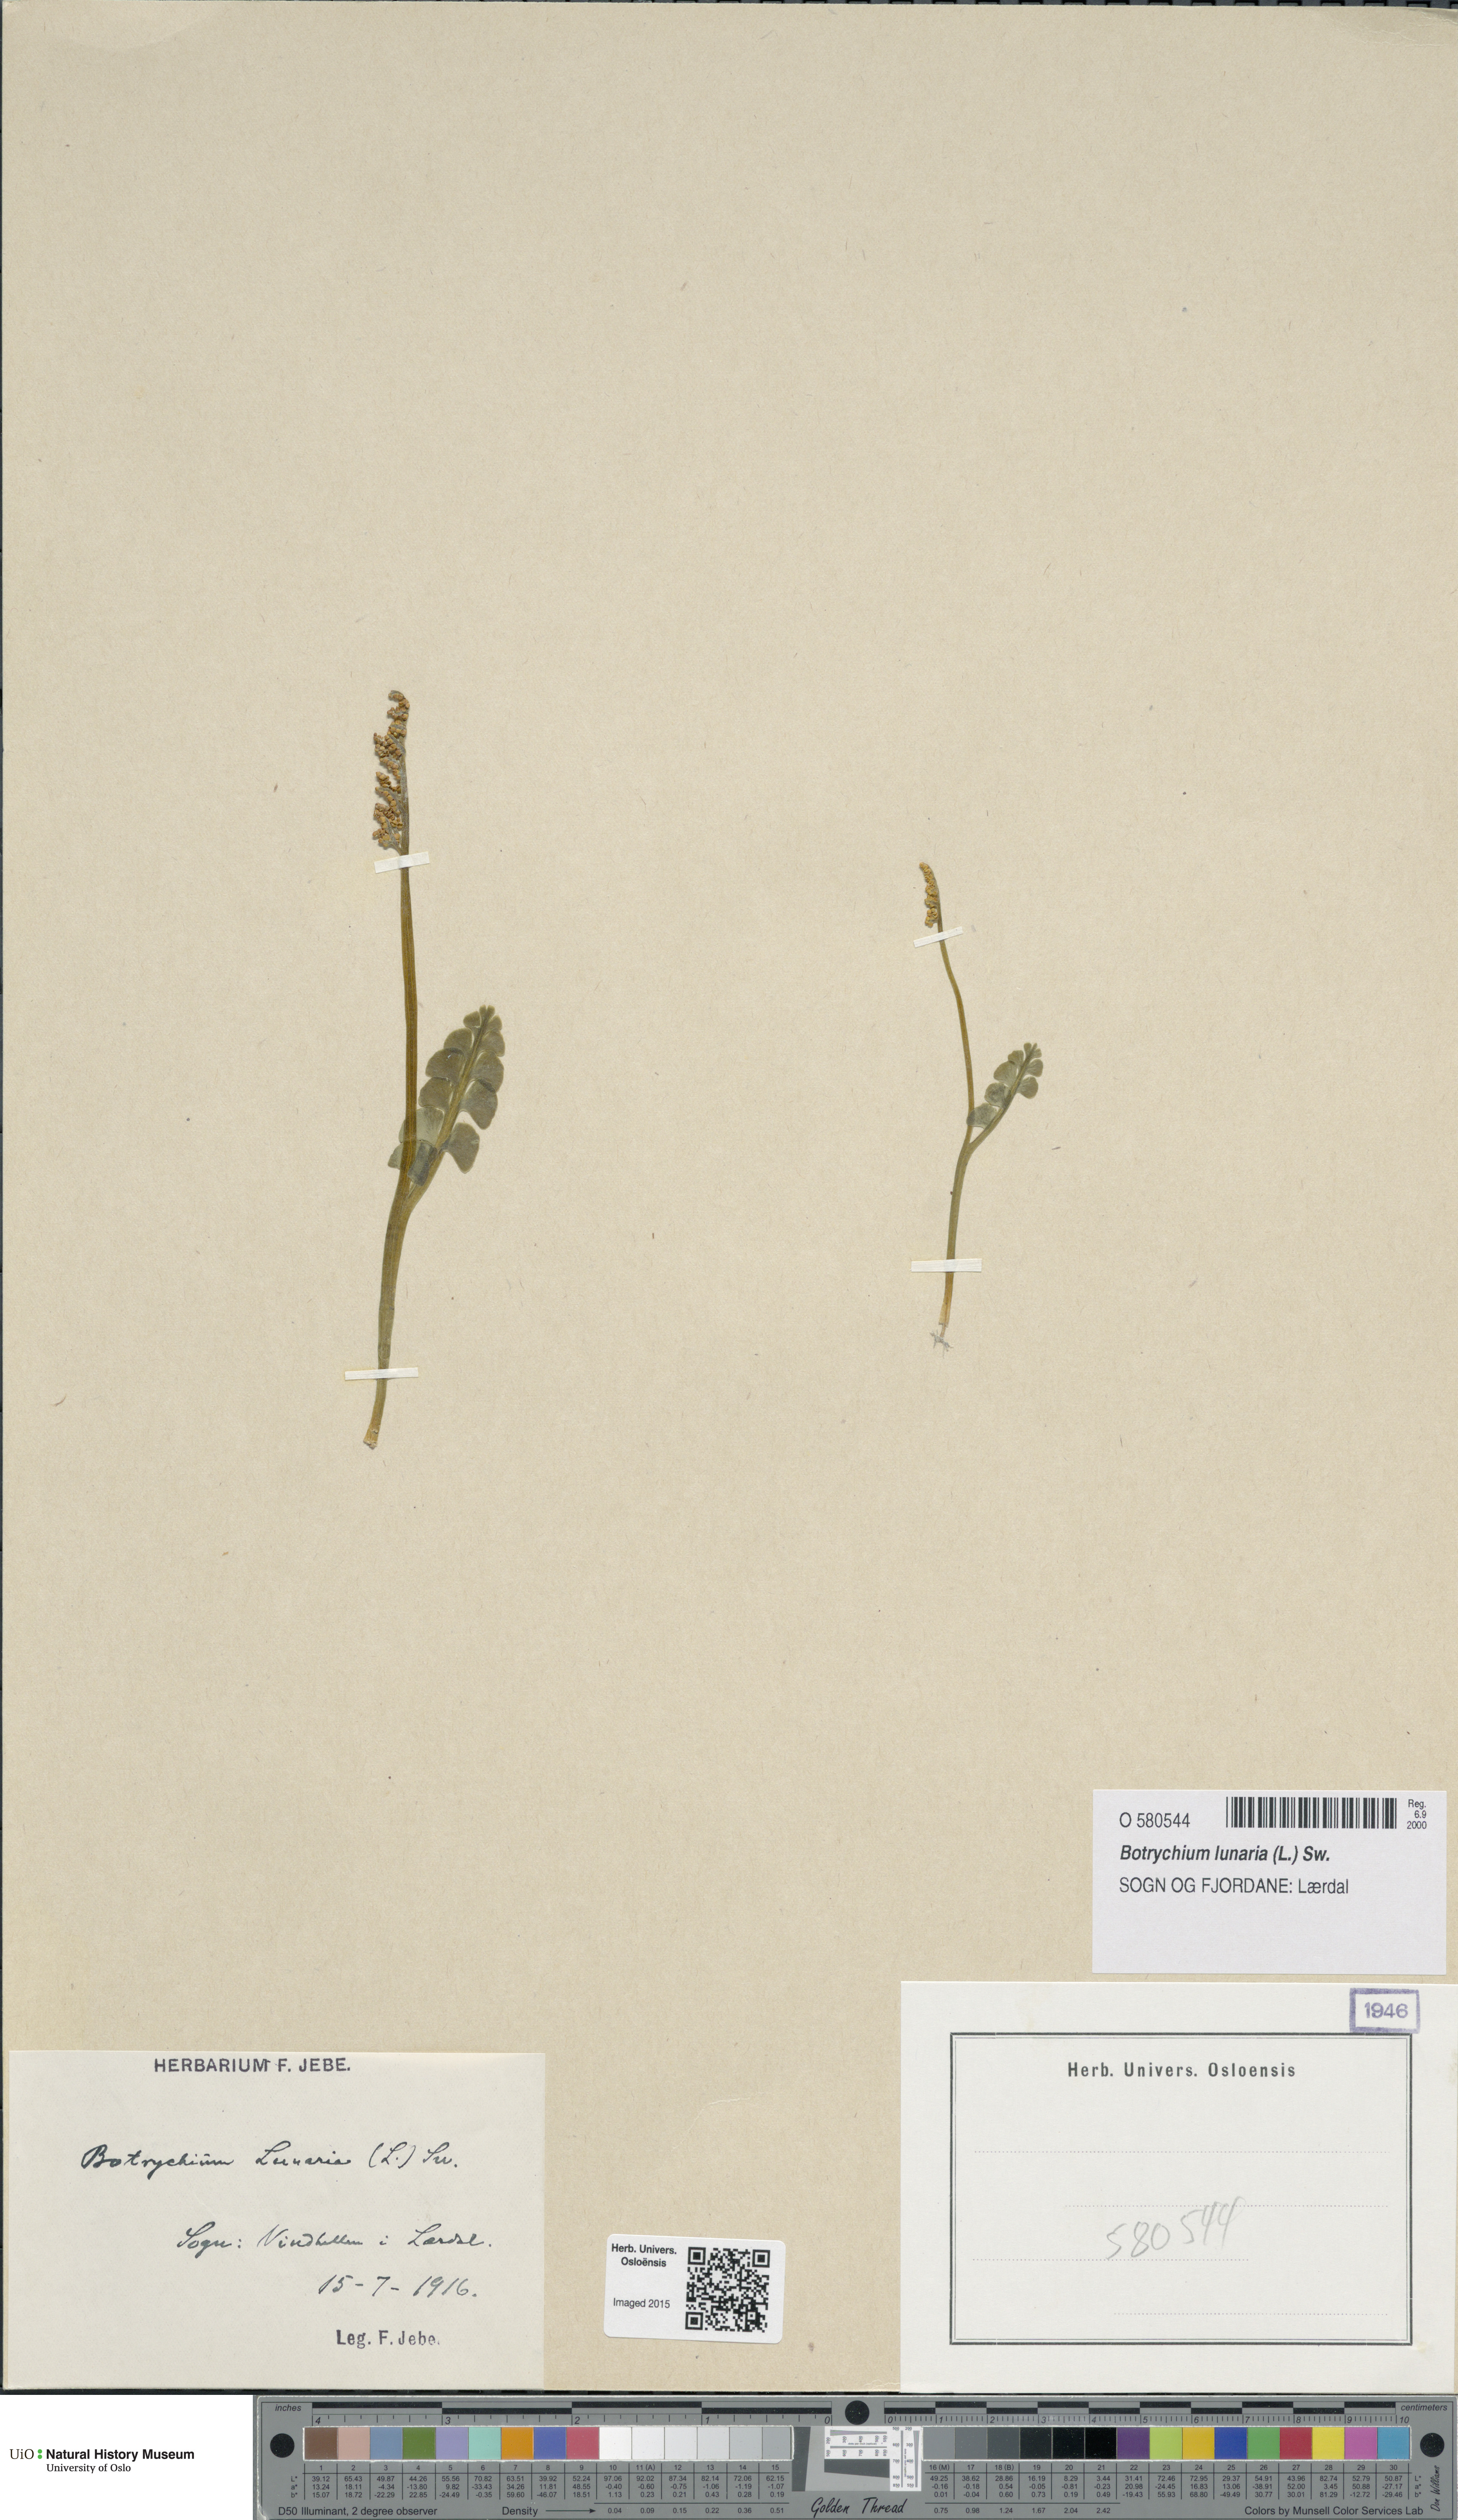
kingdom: Plantae
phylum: Tracheophyta
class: Polypodiopsida
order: Ophioglossales
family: Ophioglossaceae
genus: Botrychium
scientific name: Botrychium lunaria
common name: Moonwort
